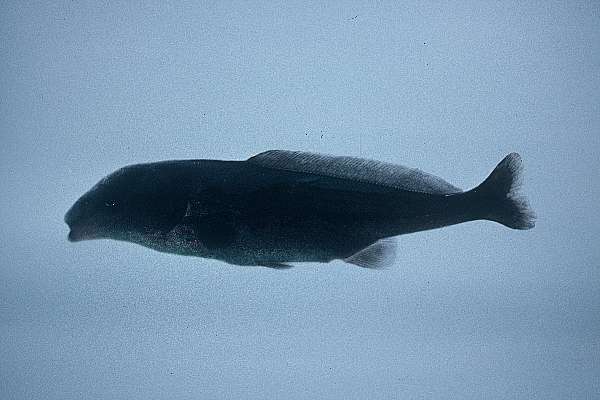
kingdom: Animalia
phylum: Chordata
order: Osteoglossiformes
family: Mormyridae
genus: Mormyrus
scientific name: Mormyrus longirostris
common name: Eastern bottlenose
